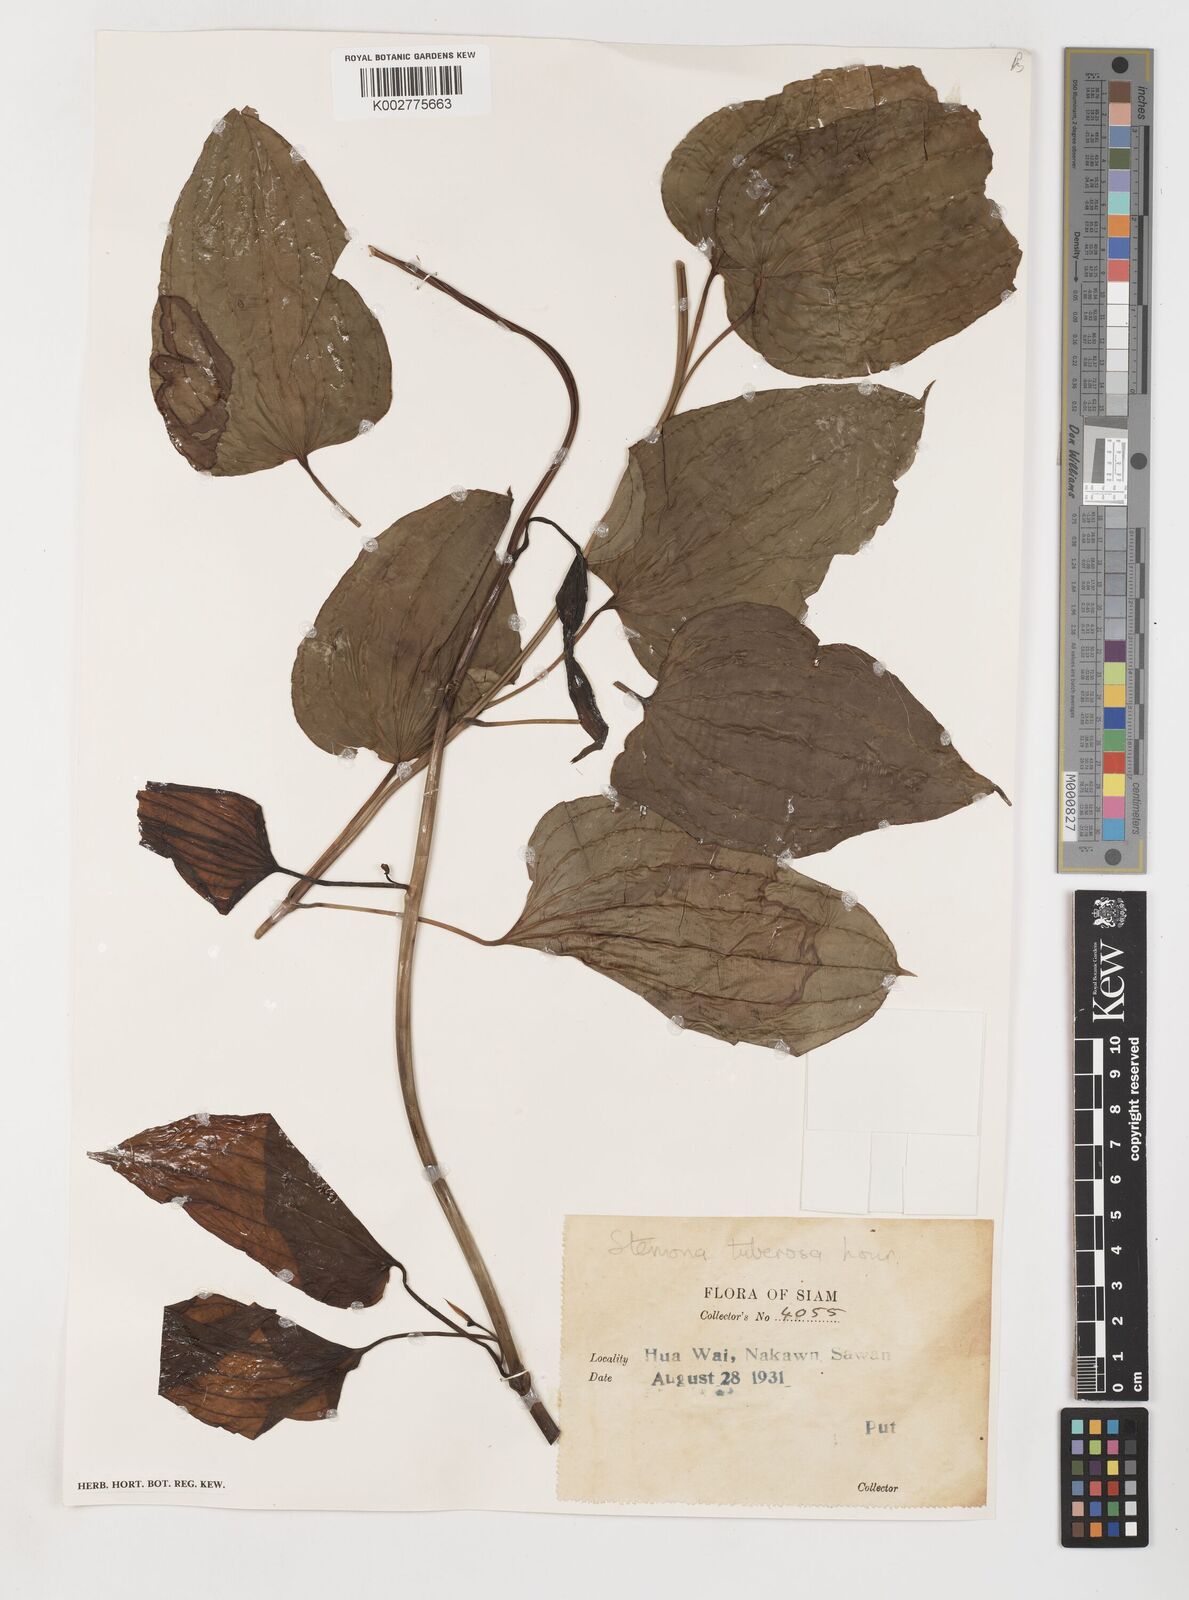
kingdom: Plantae
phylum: Tracheophyta
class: Liliopsida
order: Pandanales
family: Stemonaceae
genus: Stemona
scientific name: Stemona tuberosa
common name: Stemona
